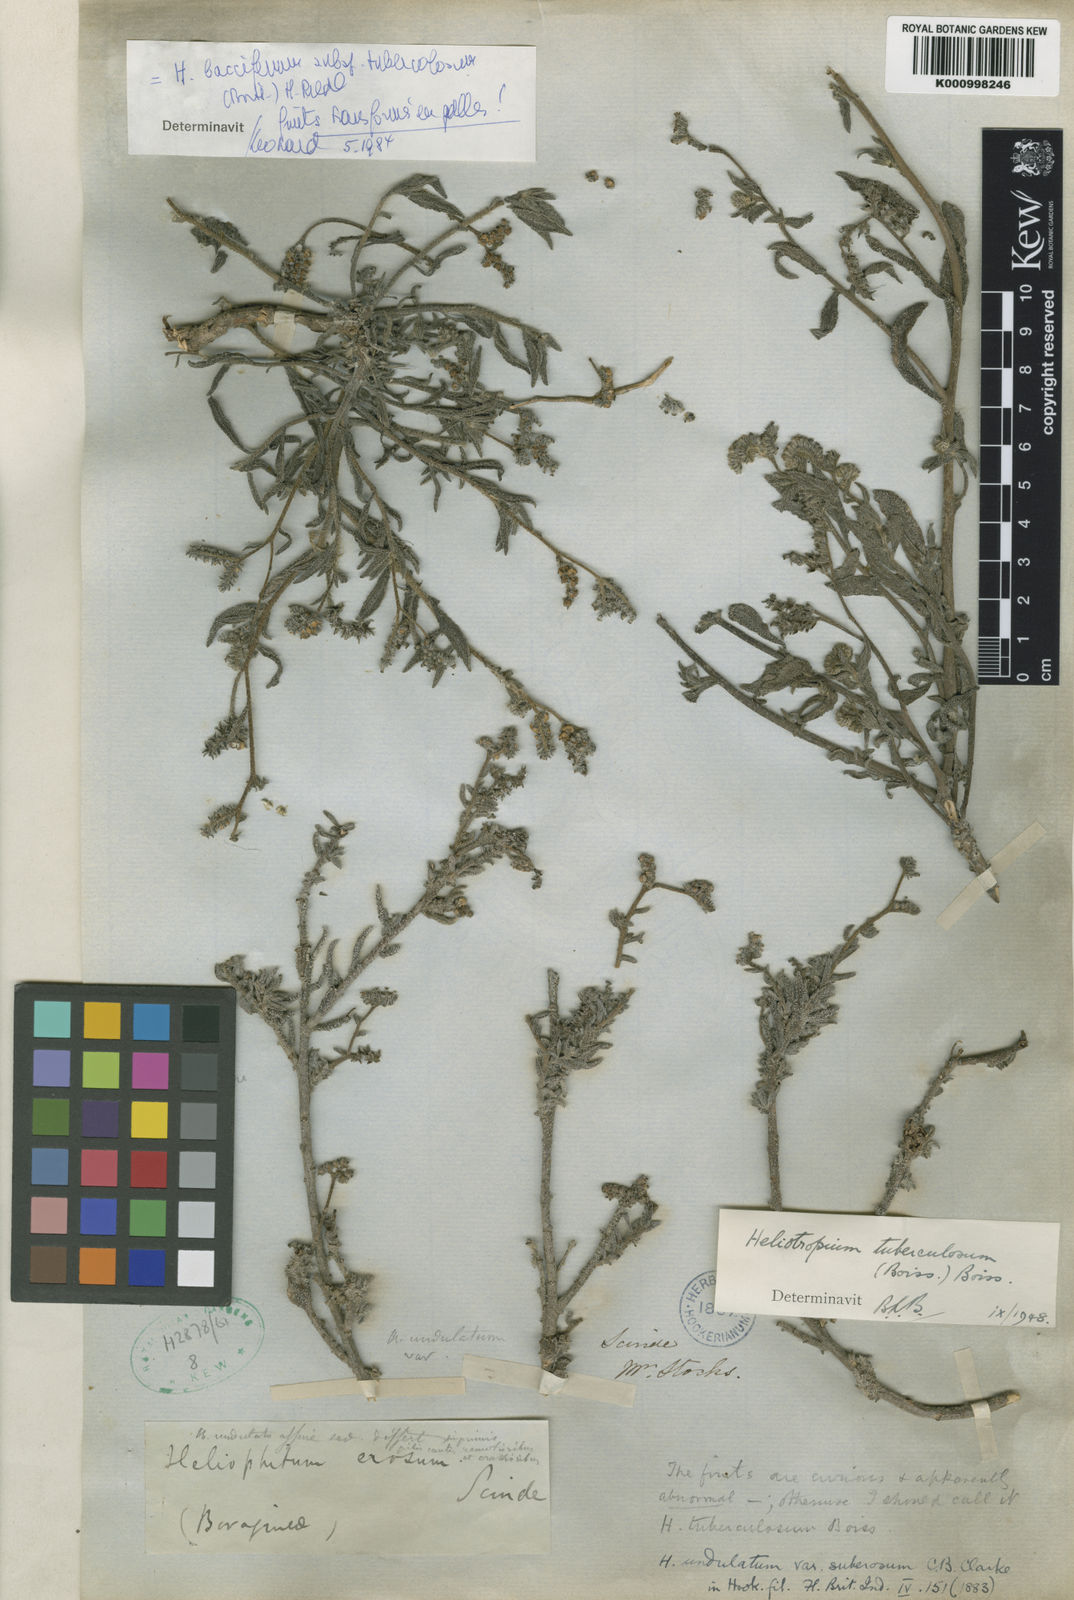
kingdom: Plantae
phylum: Tracheophyta
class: Magnoliopsida
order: Boraginales
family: Heliotropiaceae
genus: Heliotropium
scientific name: Heliotropium bacciferum
